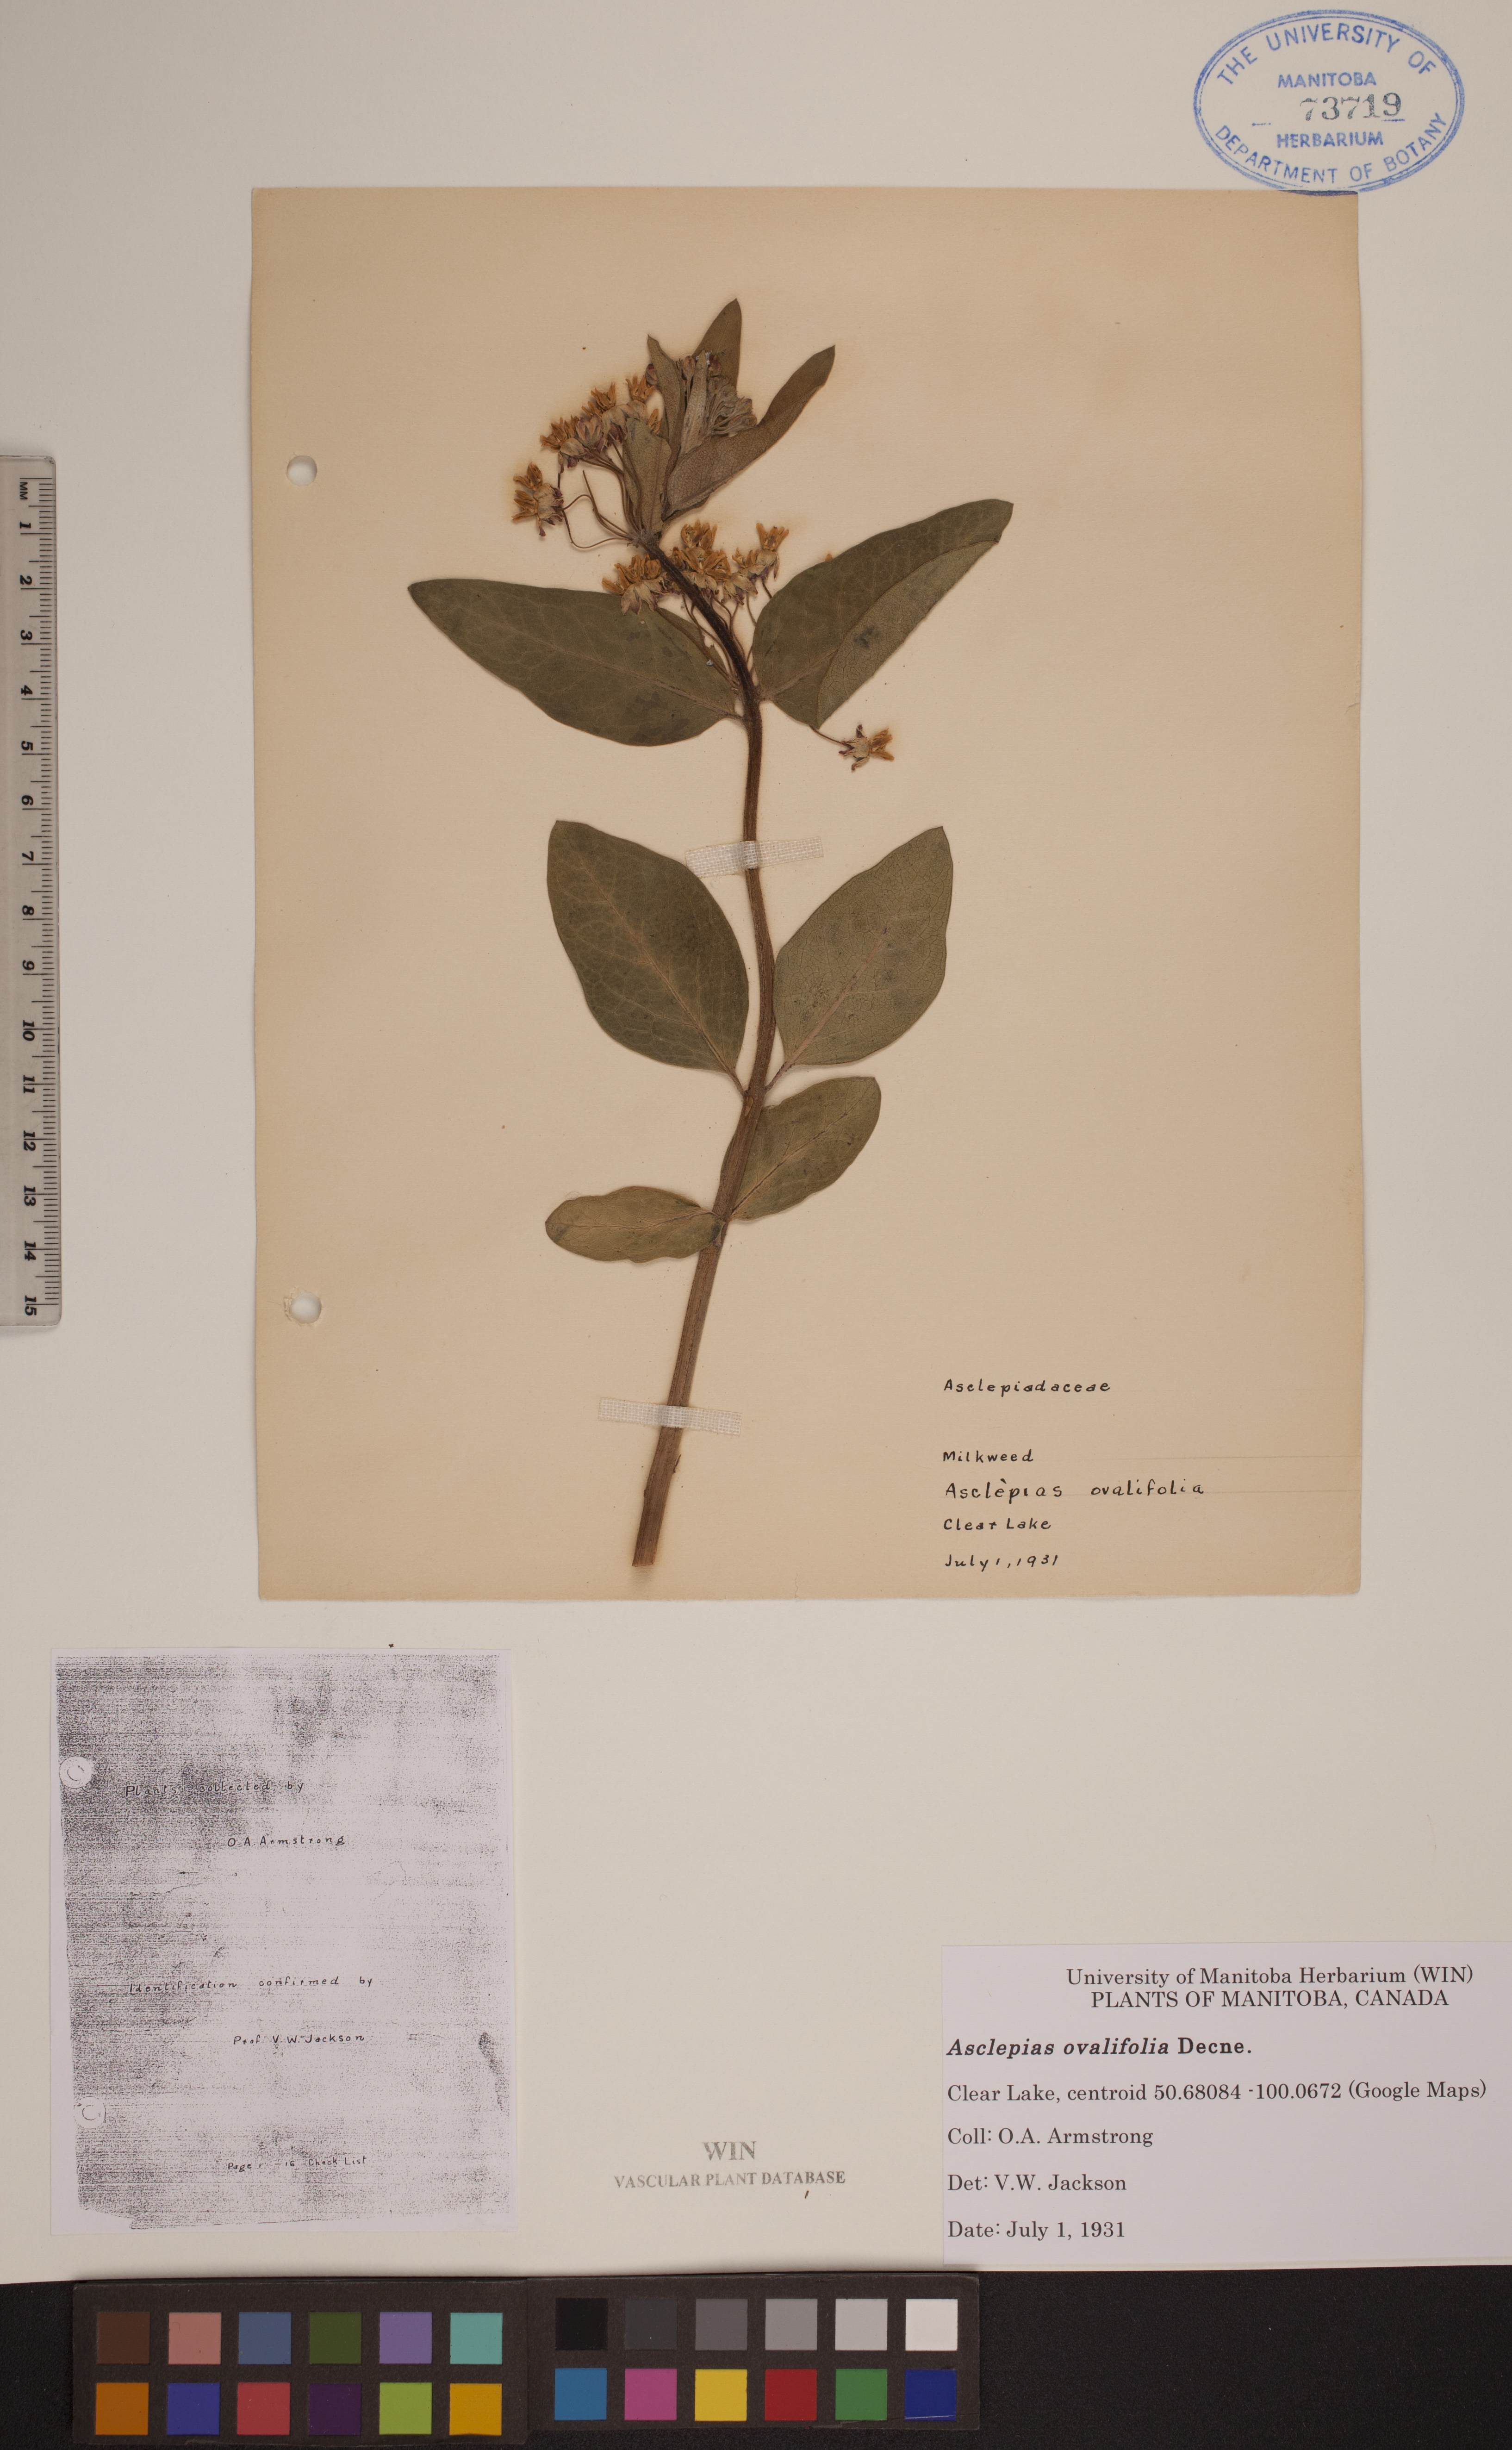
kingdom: Plantae
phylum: Tracheophyta
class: Magnoliopsida
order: Gentianales
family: Apocynaceae
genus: Asclepias
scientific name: Asclepias ovalifolia
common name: Dwarf milkweed
